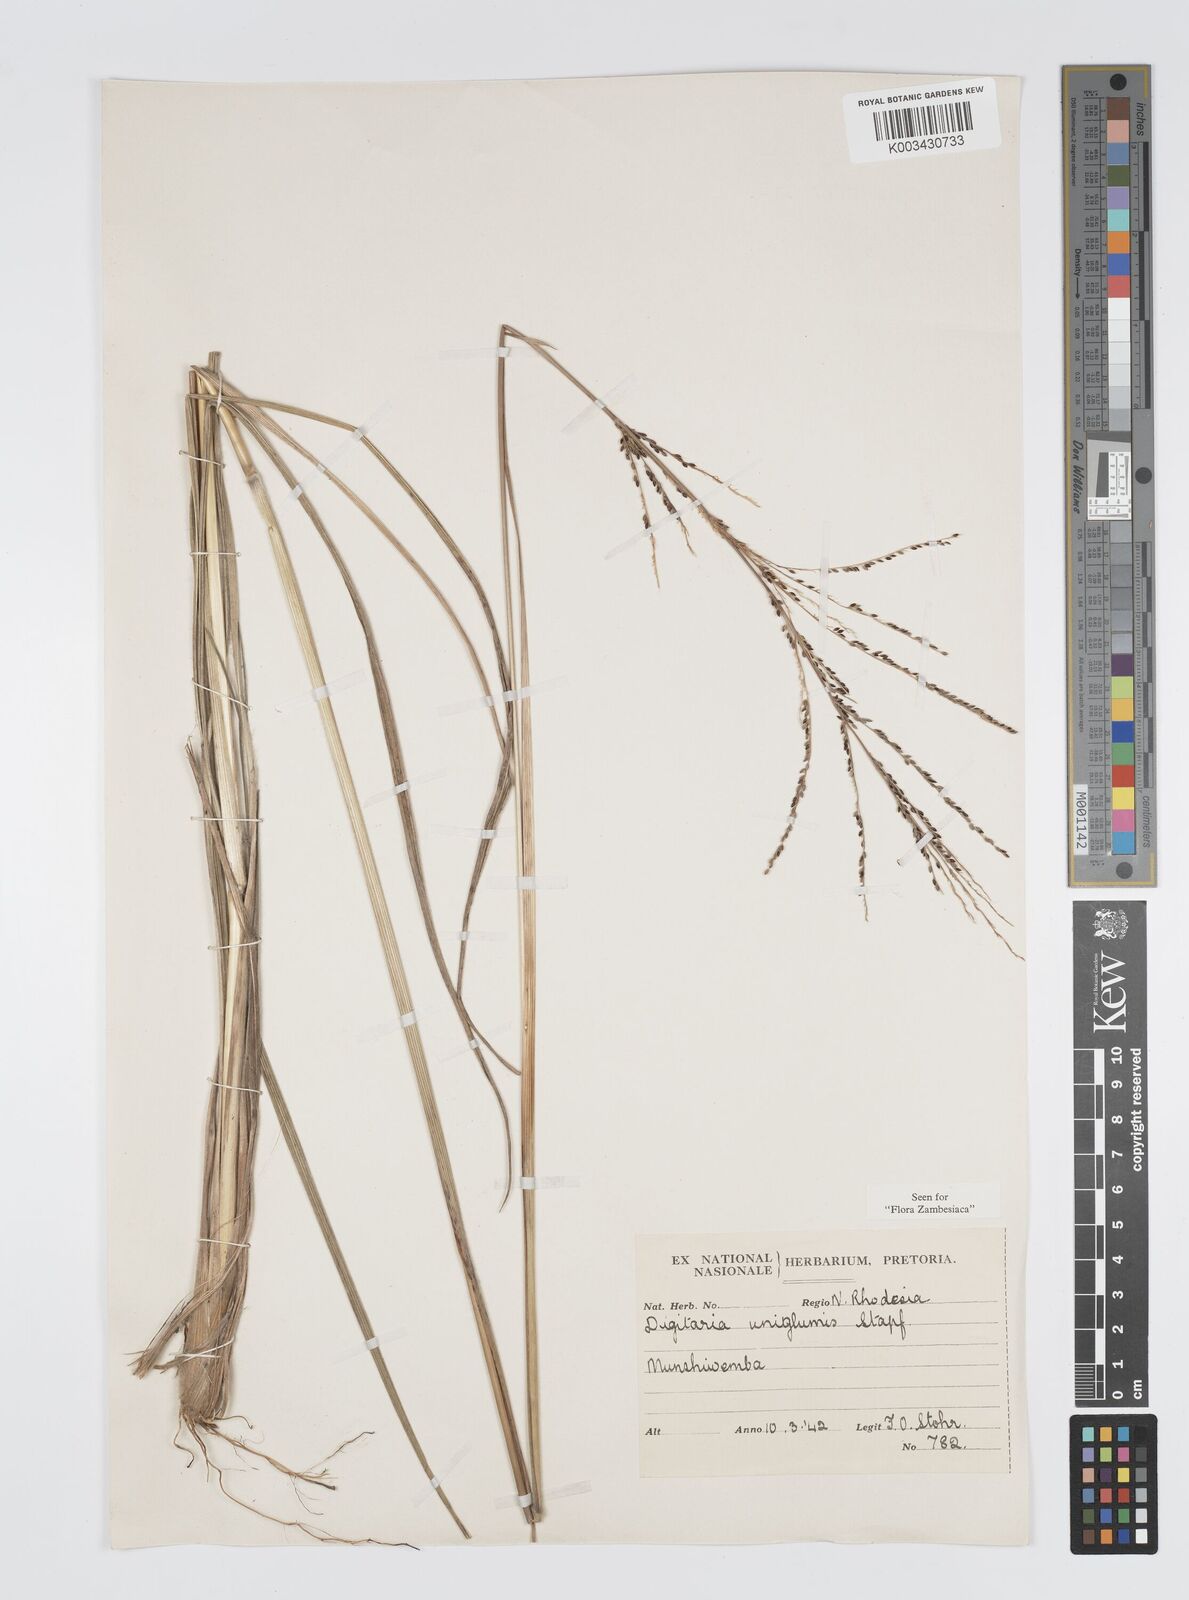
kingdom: Plantae
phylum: Tracheophyta
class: Liliopsida
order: Poales
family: Poaceae
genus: Digitaria
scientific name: Digitaria diagonalis
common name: Brown-seed finger grass
